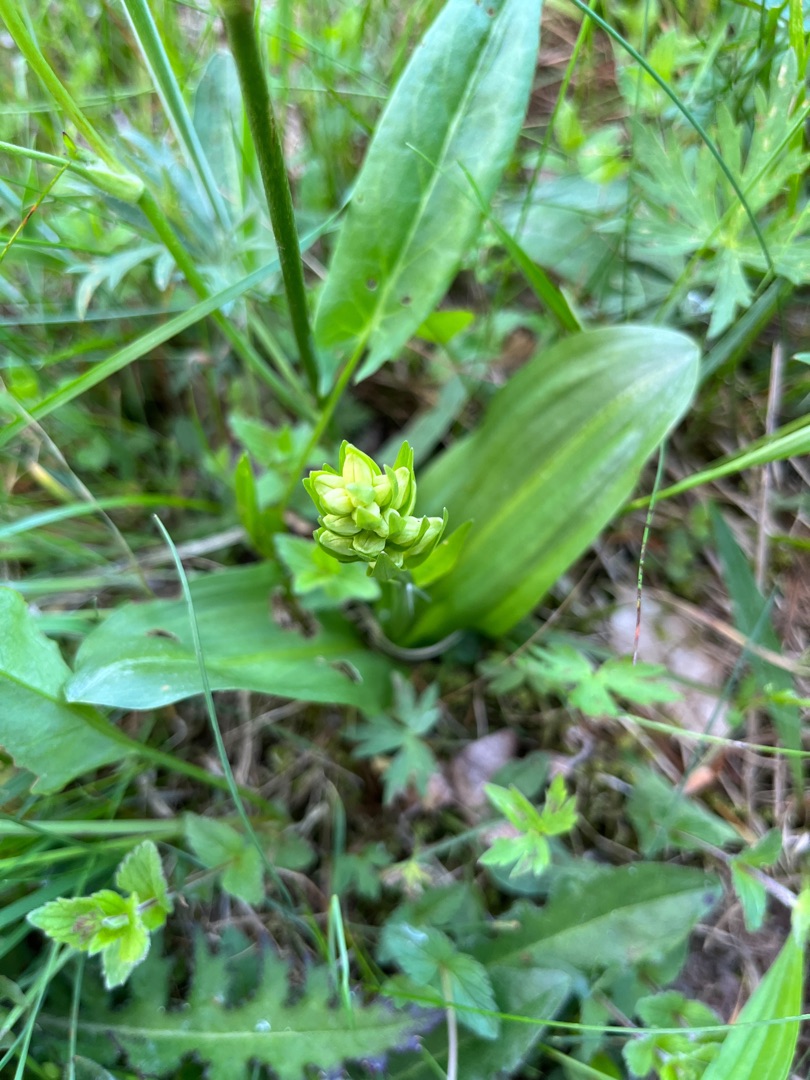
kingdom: Plantae
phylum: Tracheophyta
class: Liliopsida
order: Asparagales
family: Orchidaceae
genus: Platanthera
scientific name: Platanthera
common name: Gøgeliljeslægten
